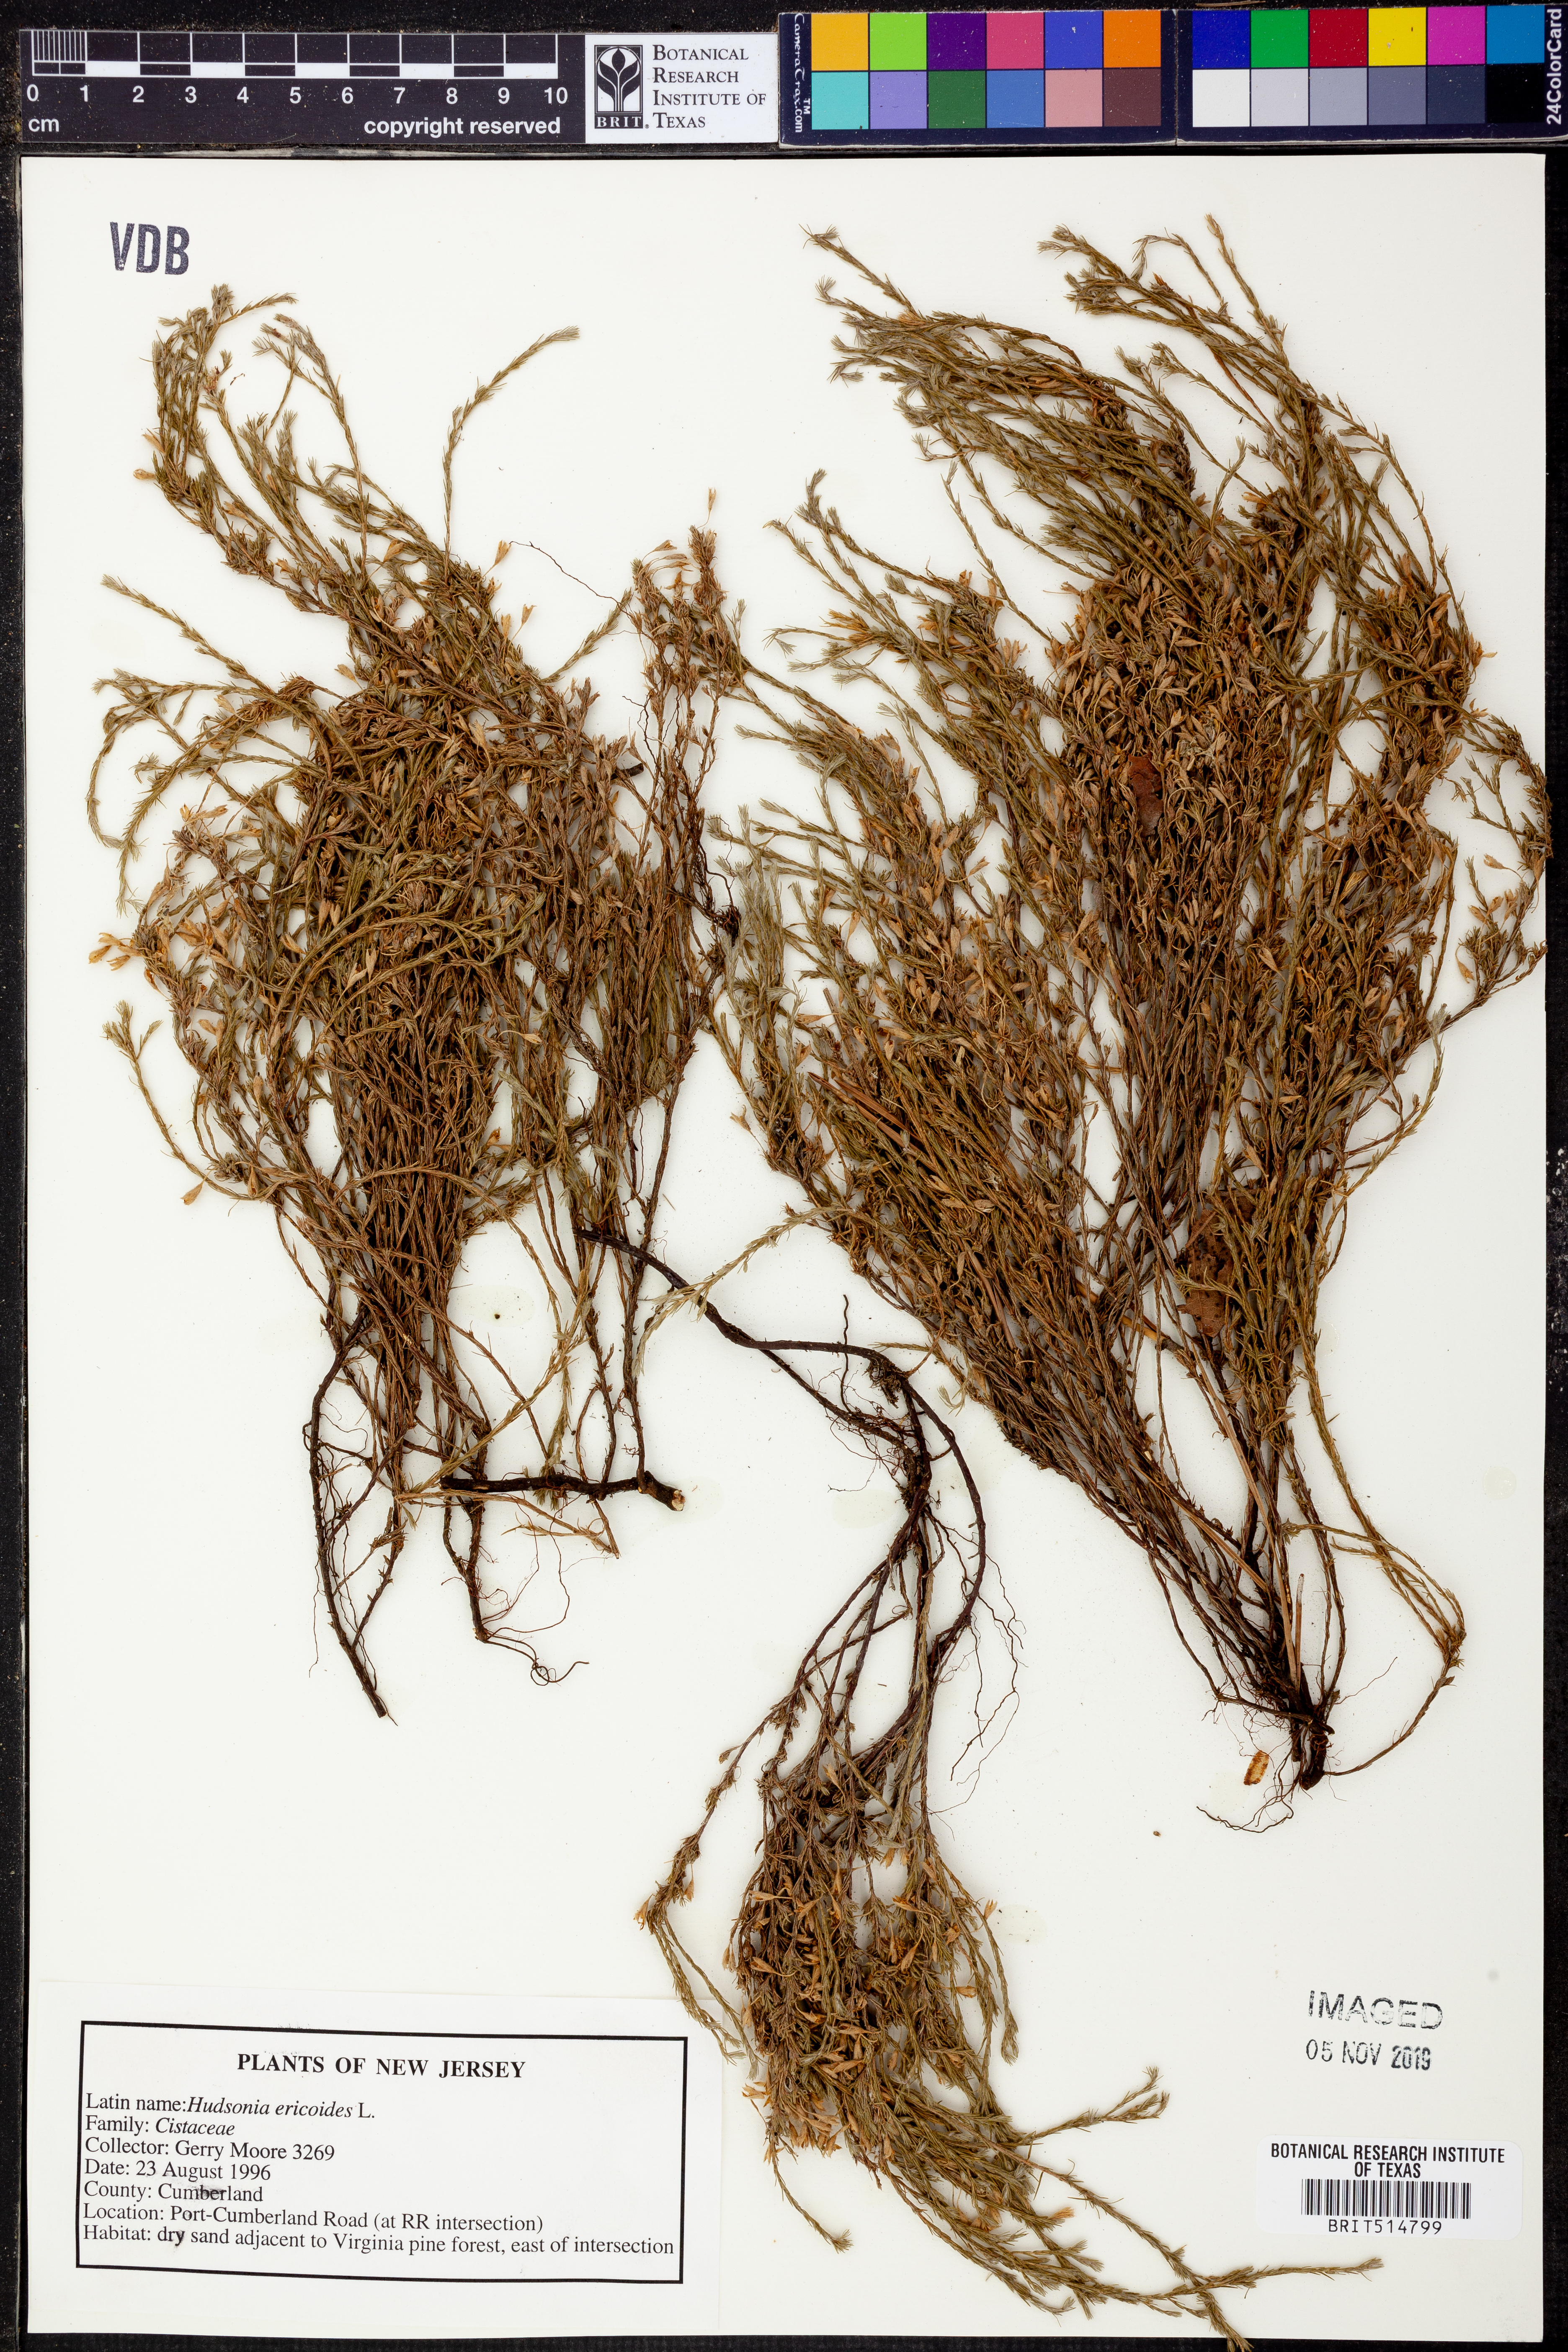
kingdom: Plantae
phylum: Tracheophyta
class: Magnoliopsida
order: Malvales
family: Cistaceae
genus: Hudsonia
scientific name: Hudsonia ericoides
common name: Golden-heather
